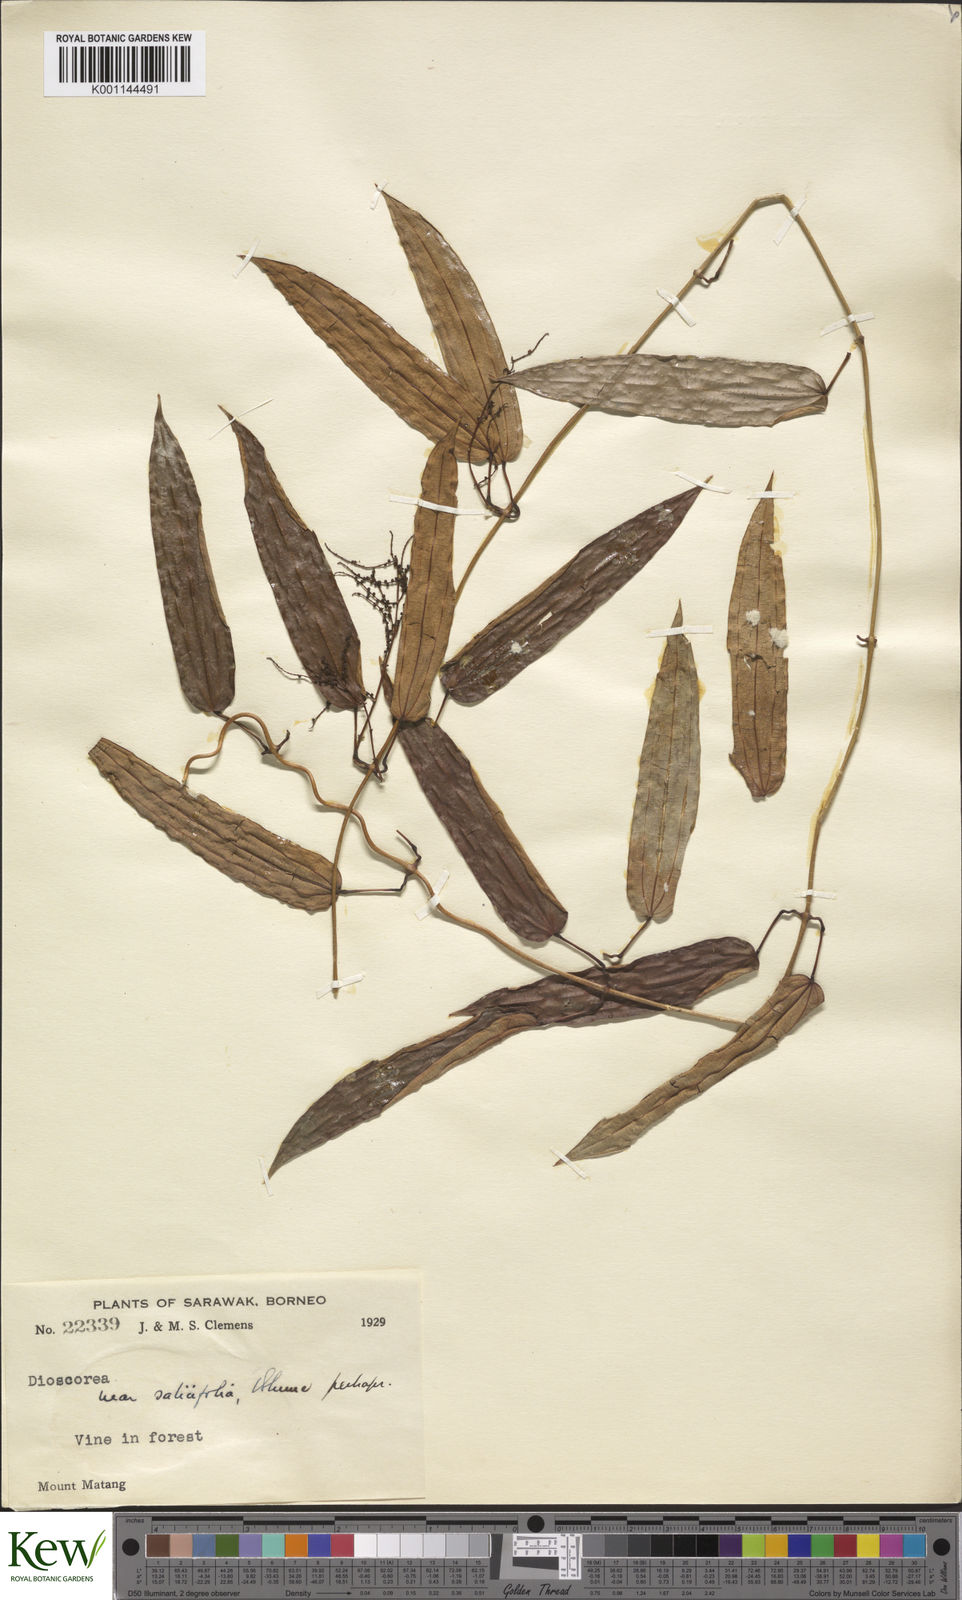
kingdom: Plantae
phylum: Tracheophyta
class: Liliopsida
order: Dioscoreales
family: Dioscoreaceae
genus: Dioscorea
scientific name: Dioscorea salicifolia
